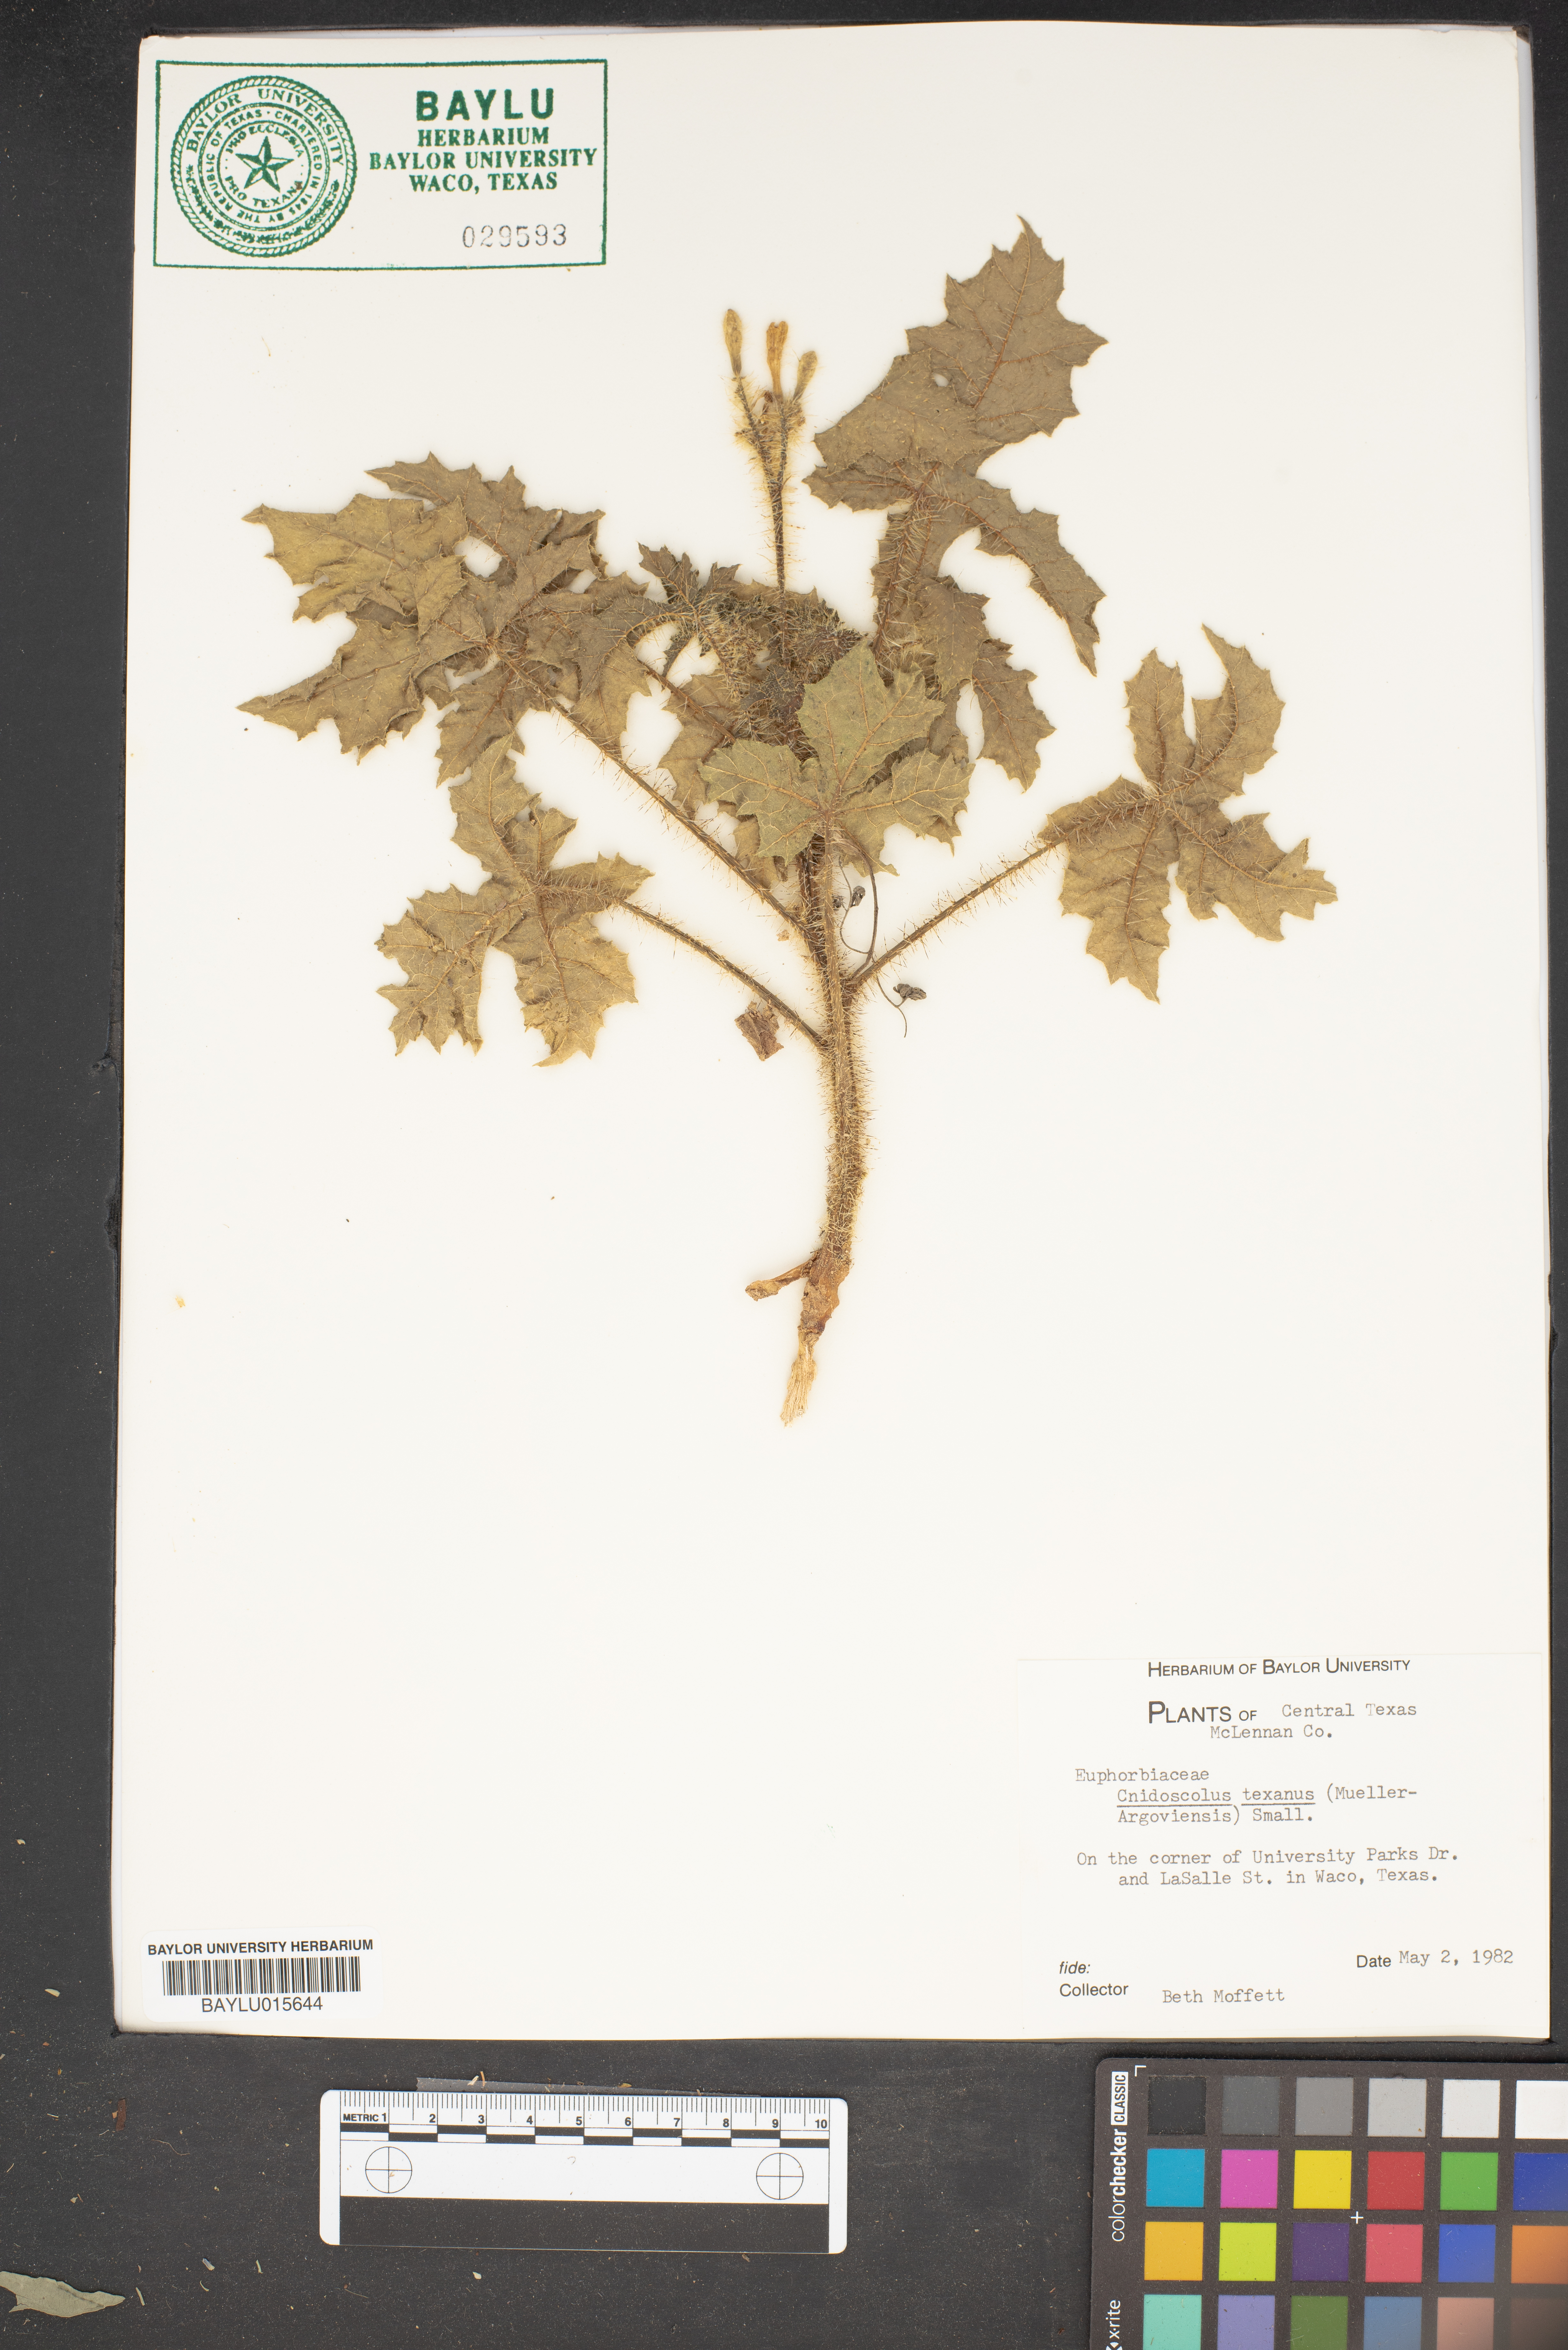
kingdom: Plantae
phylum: Tracheophyta
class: Magnoliopsida
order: Malpighiales
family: Euphorbiaceae
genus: Cnidoscolus
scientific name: Cnidoscolus texanus
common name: Texas bull-nettle
